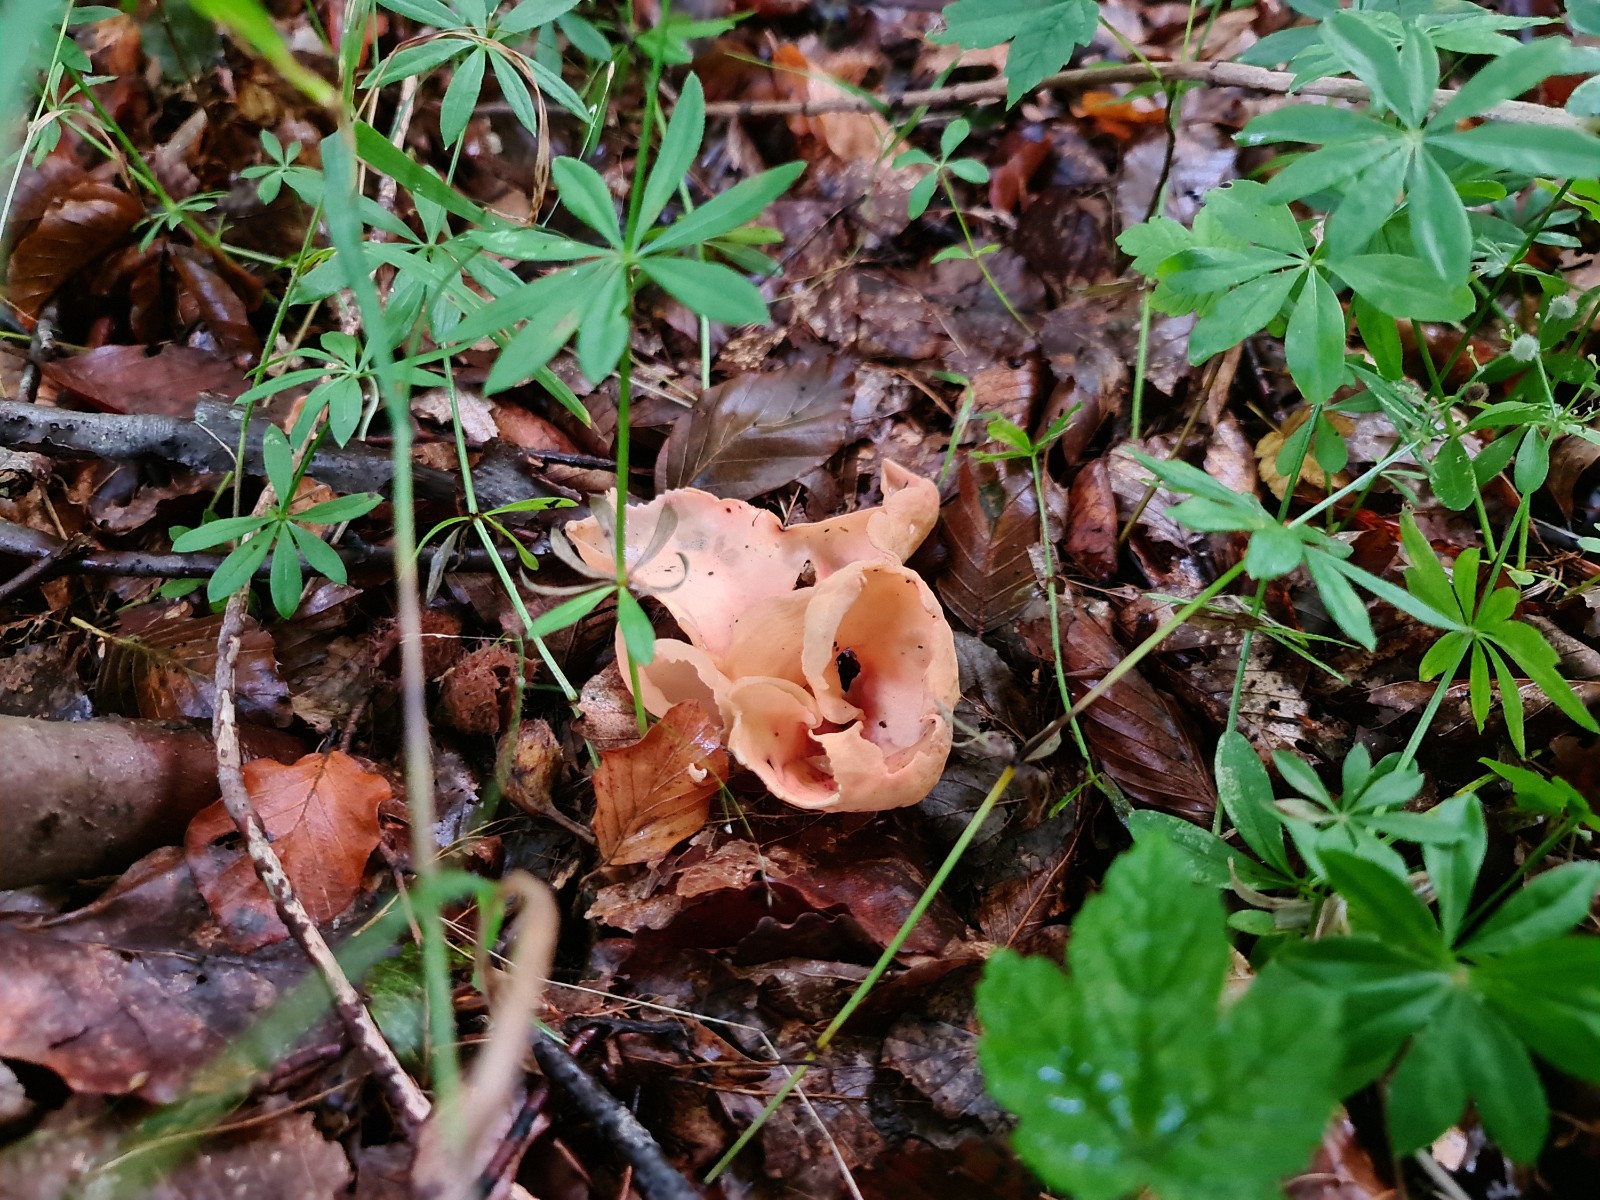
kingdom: Fungi
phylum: Ascomycota
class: Pezizomycetes
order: Pezizales
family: Otideaceae
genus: Otidea
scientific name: Otidea onotica
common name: æsel-ørebæger
